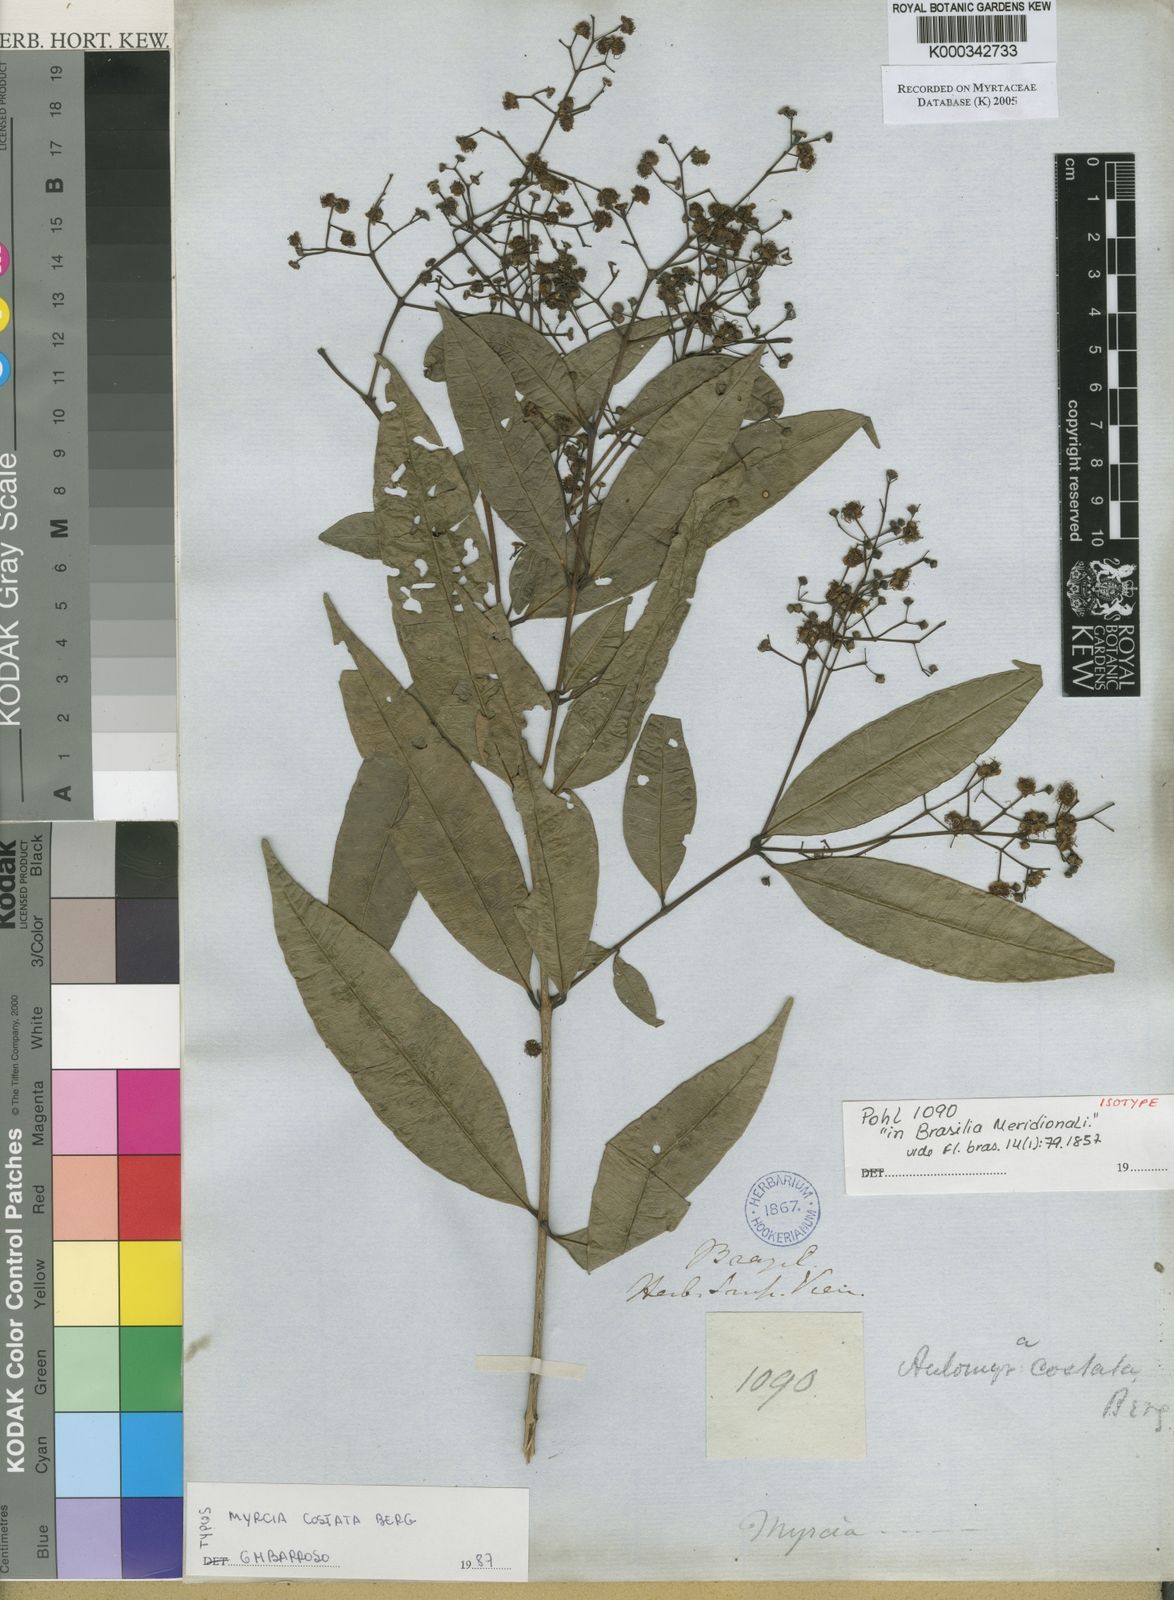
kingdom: Plantae
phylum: Tracheophyta
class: Magnoliopsida
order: Myrtales
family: Myrtaceae
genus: Myrcia
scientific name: Myrcia splendens
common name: Surinam cherry
